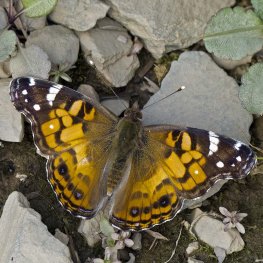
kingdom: Animalia
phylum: Arthropoda
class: Insecta
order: Lepidoptera
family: Nymphalidae
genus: Vanessa
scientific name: Vanessa virginiensis
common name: American Lady
